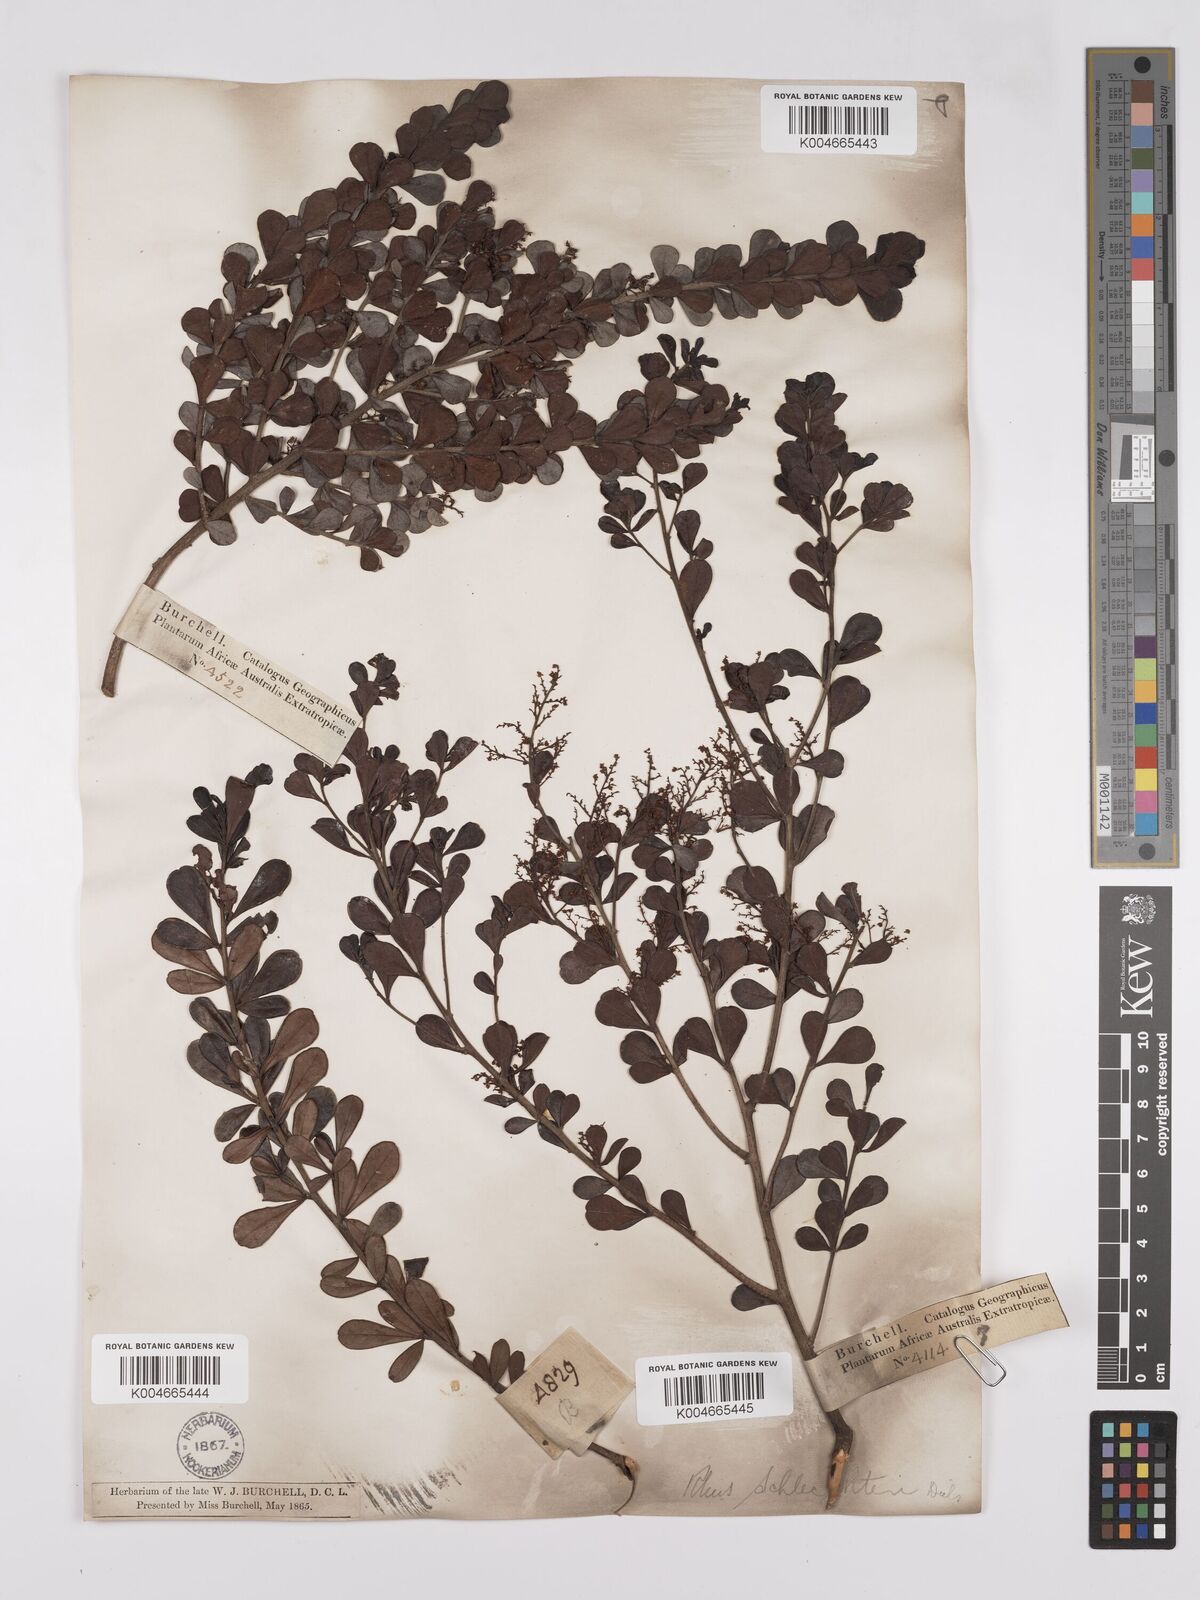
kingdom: Plantae
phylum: Tracheophyta
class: Magnoliopsida
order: Sapindales
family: Anacardiaceae
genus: Searsia
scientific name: Searsia lucida
